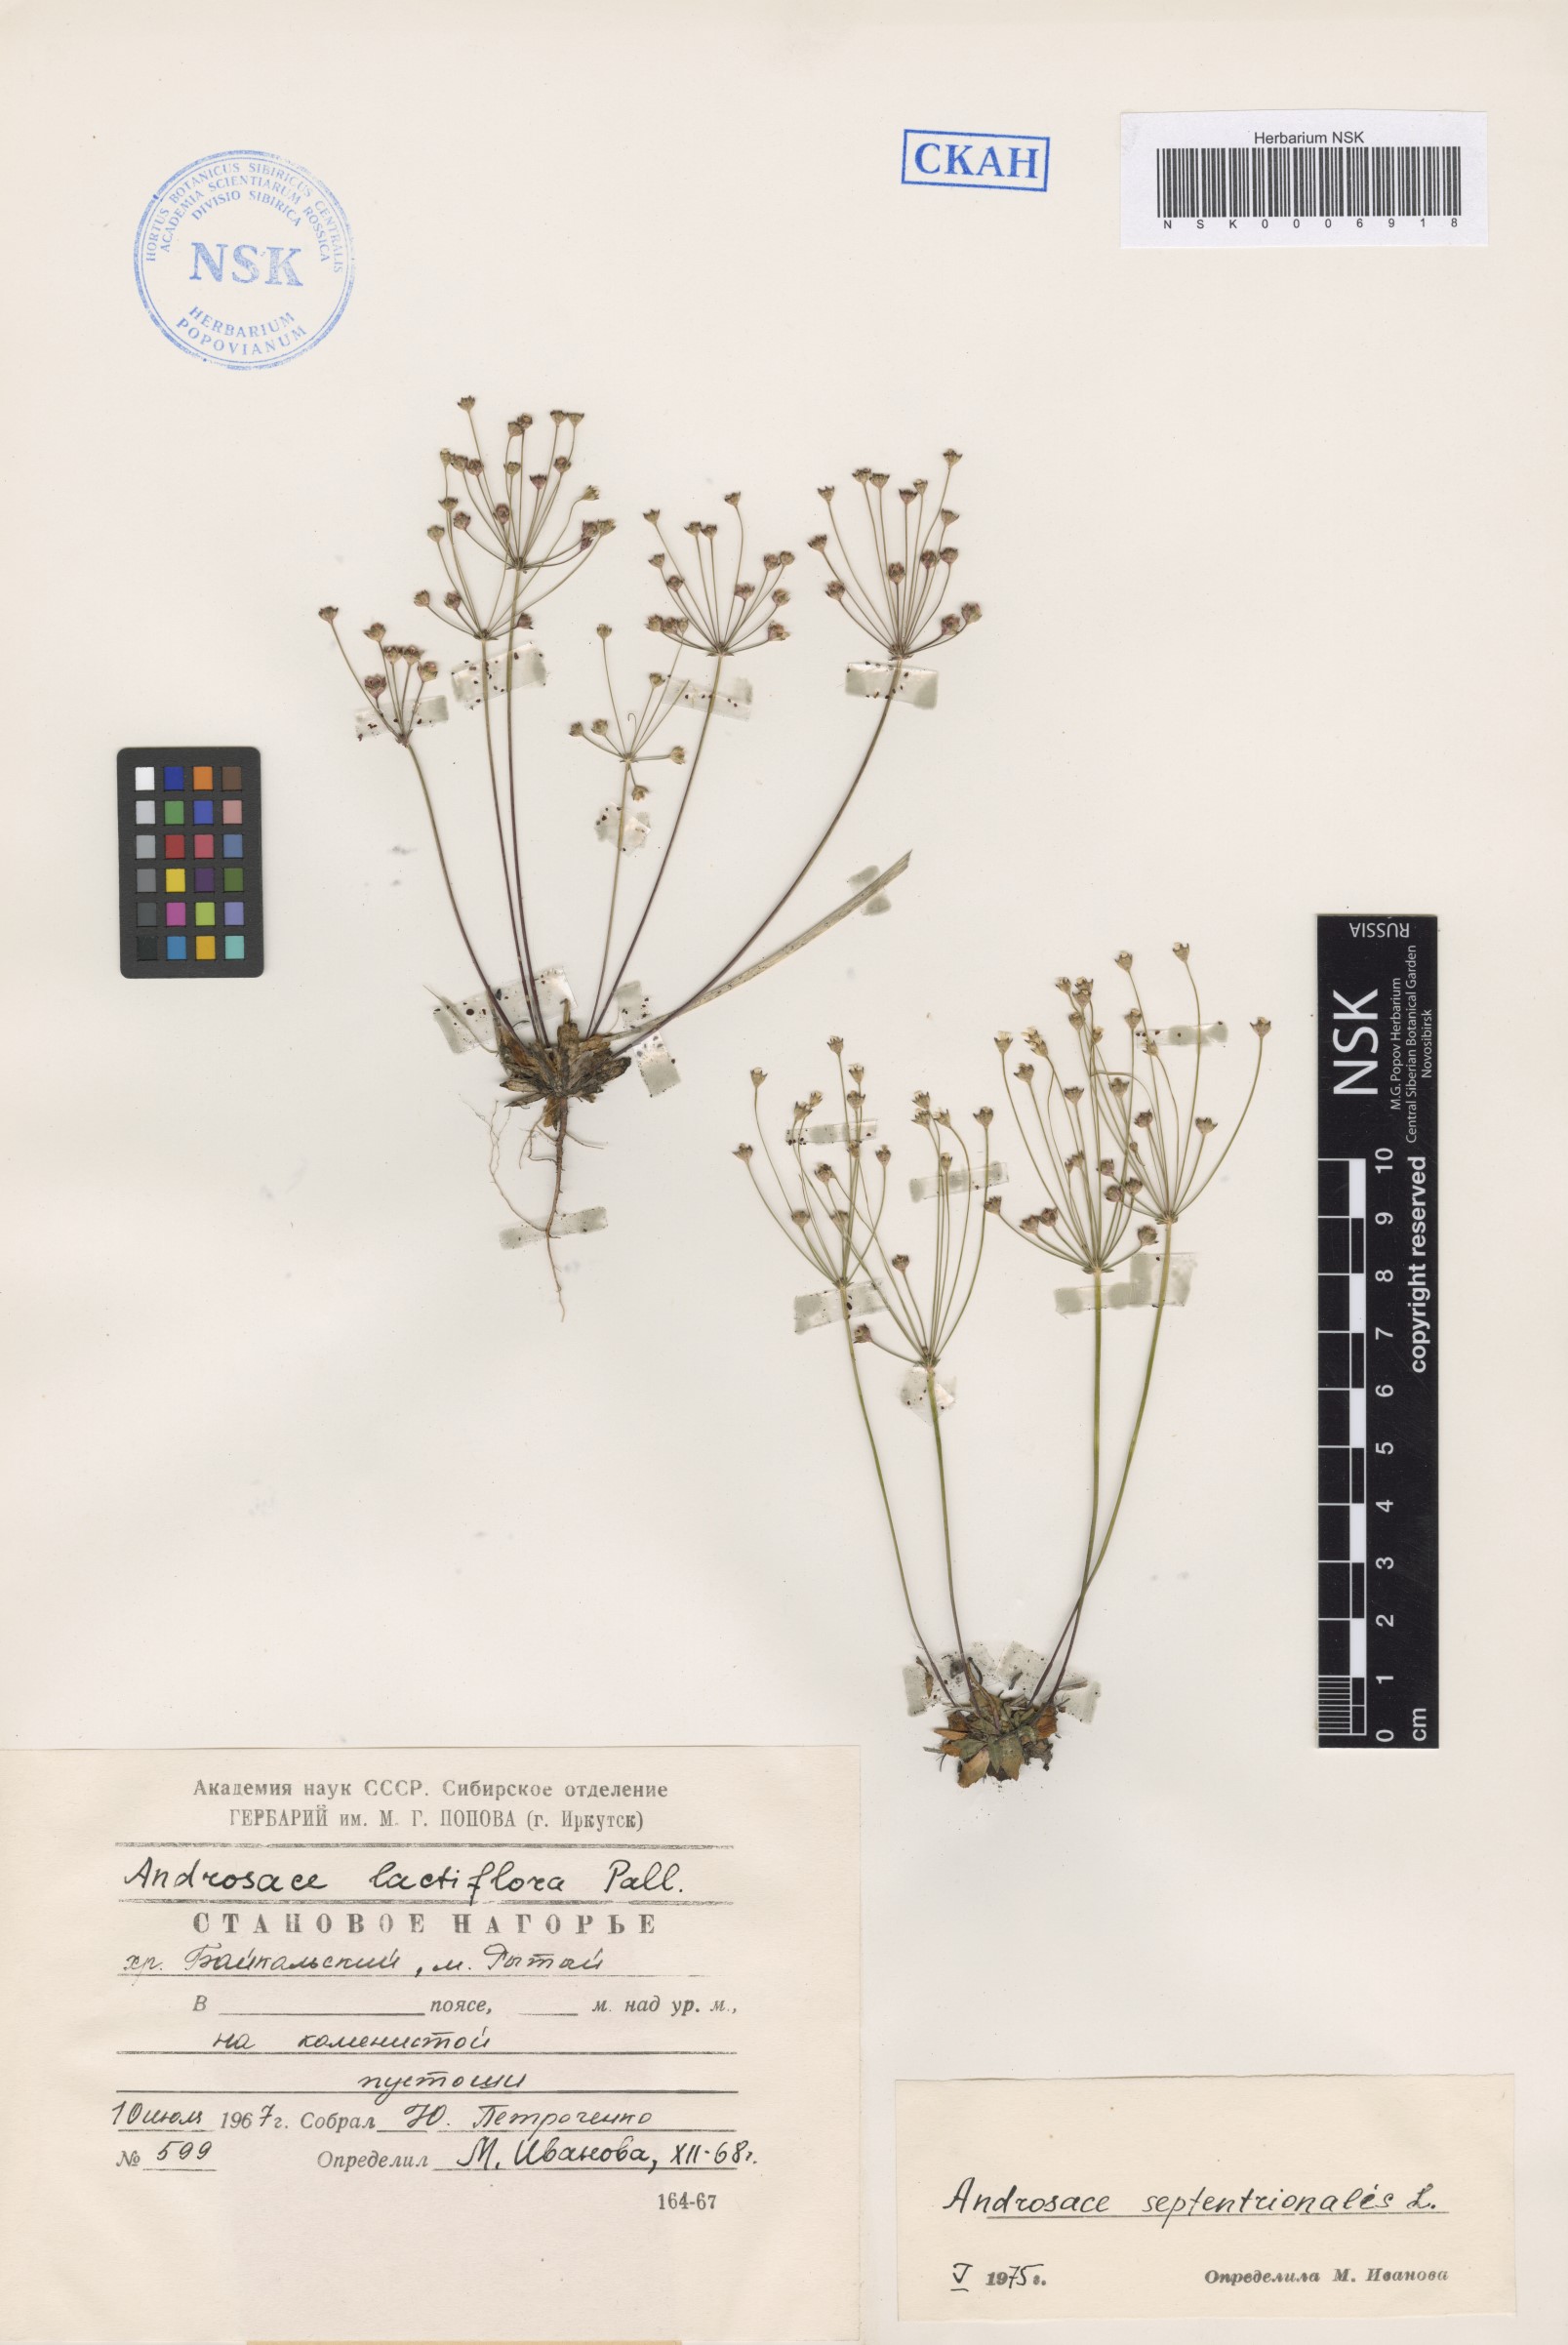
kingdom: Plantae
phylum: Tracheophyta
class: Magnoliopsida
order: Ericales
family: Primulaceae
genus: Androsace
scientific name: Androsace septentrionalis
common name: Hairy northern fairy-candelabra
